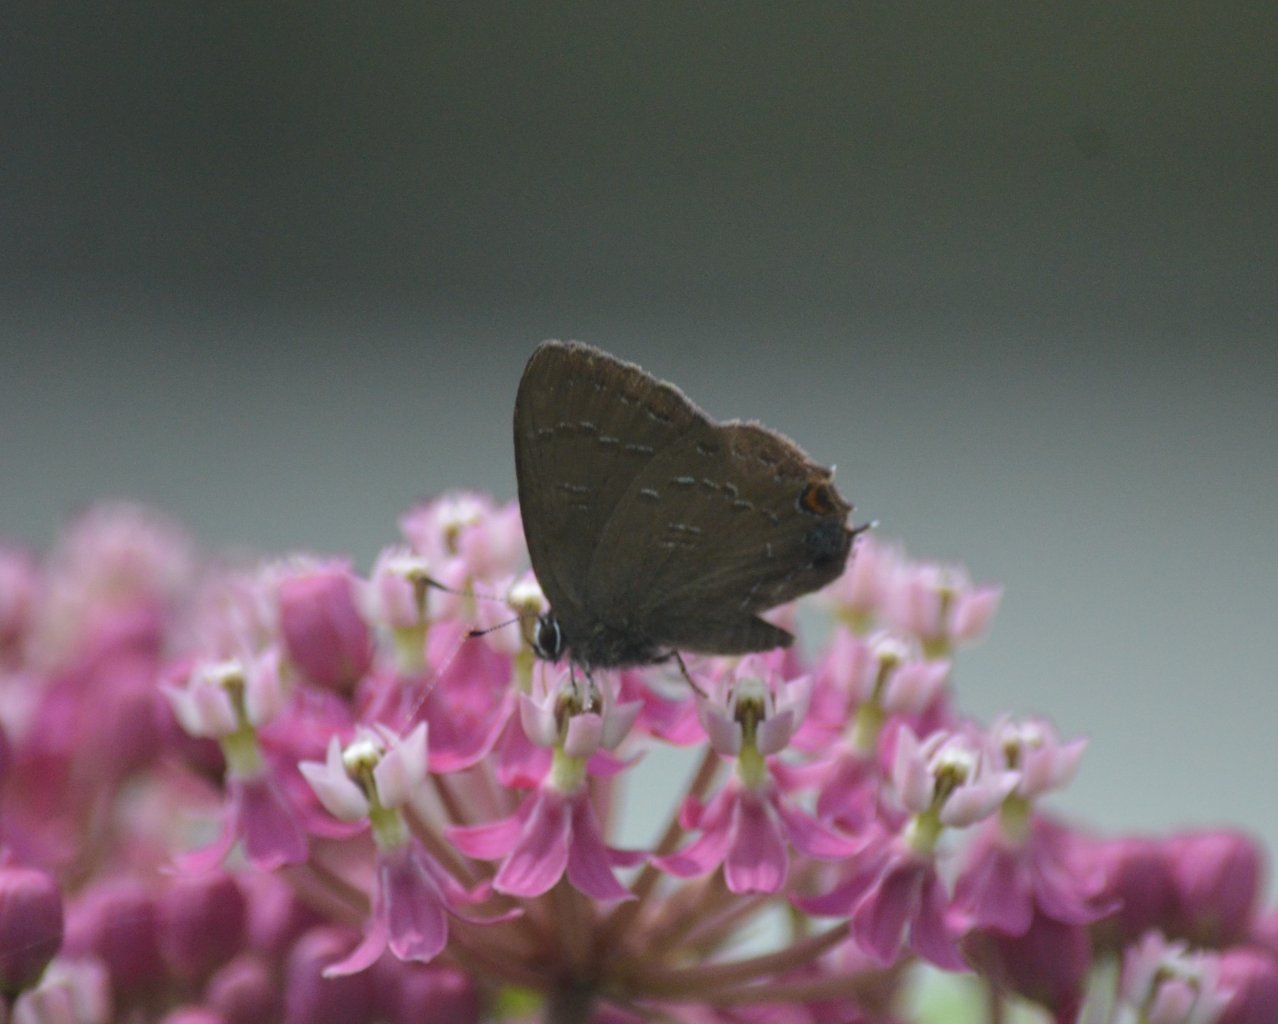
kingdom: Animalia
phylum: Arthropoda
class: Insecta
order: Lepidoptera
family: Lycaenidae
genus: Satyrium
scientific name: Satyrium calanus
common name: Banded Hairstreak
